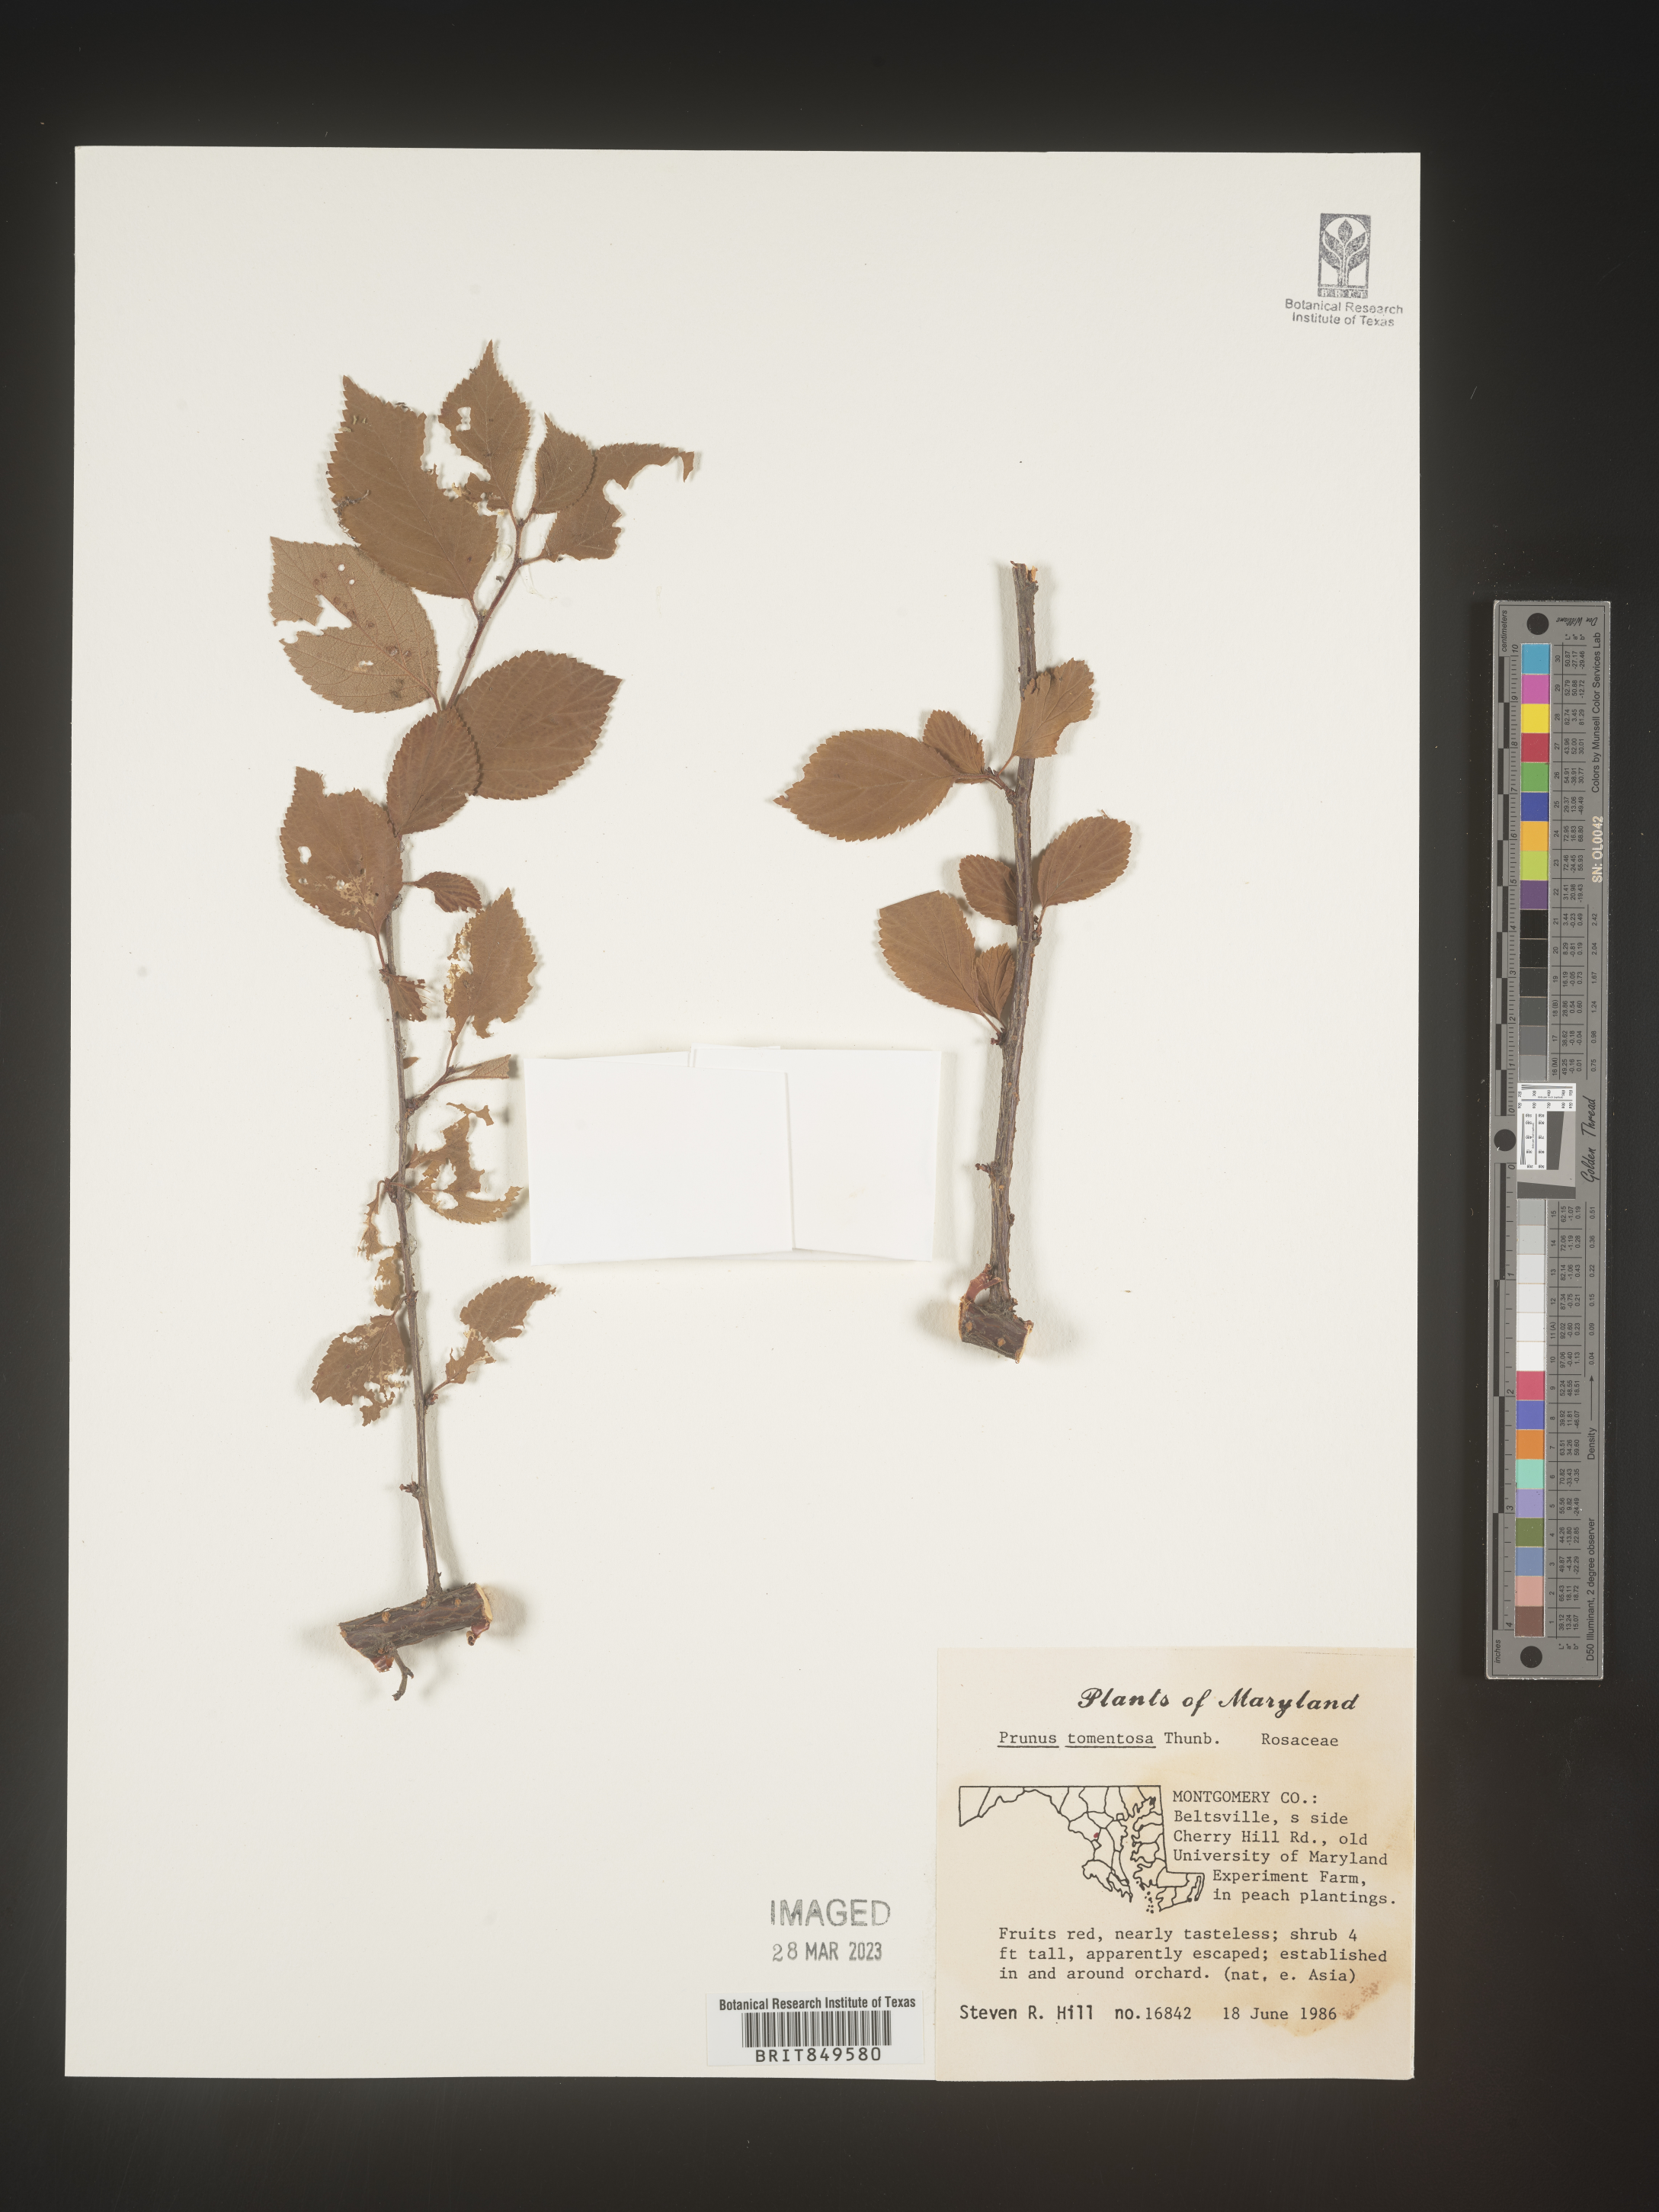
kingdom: Plantae
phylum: Tracheophyta
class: Magnoliopsida
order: Rosales
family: Rosaceae
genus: Prunus
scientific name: Prunus
